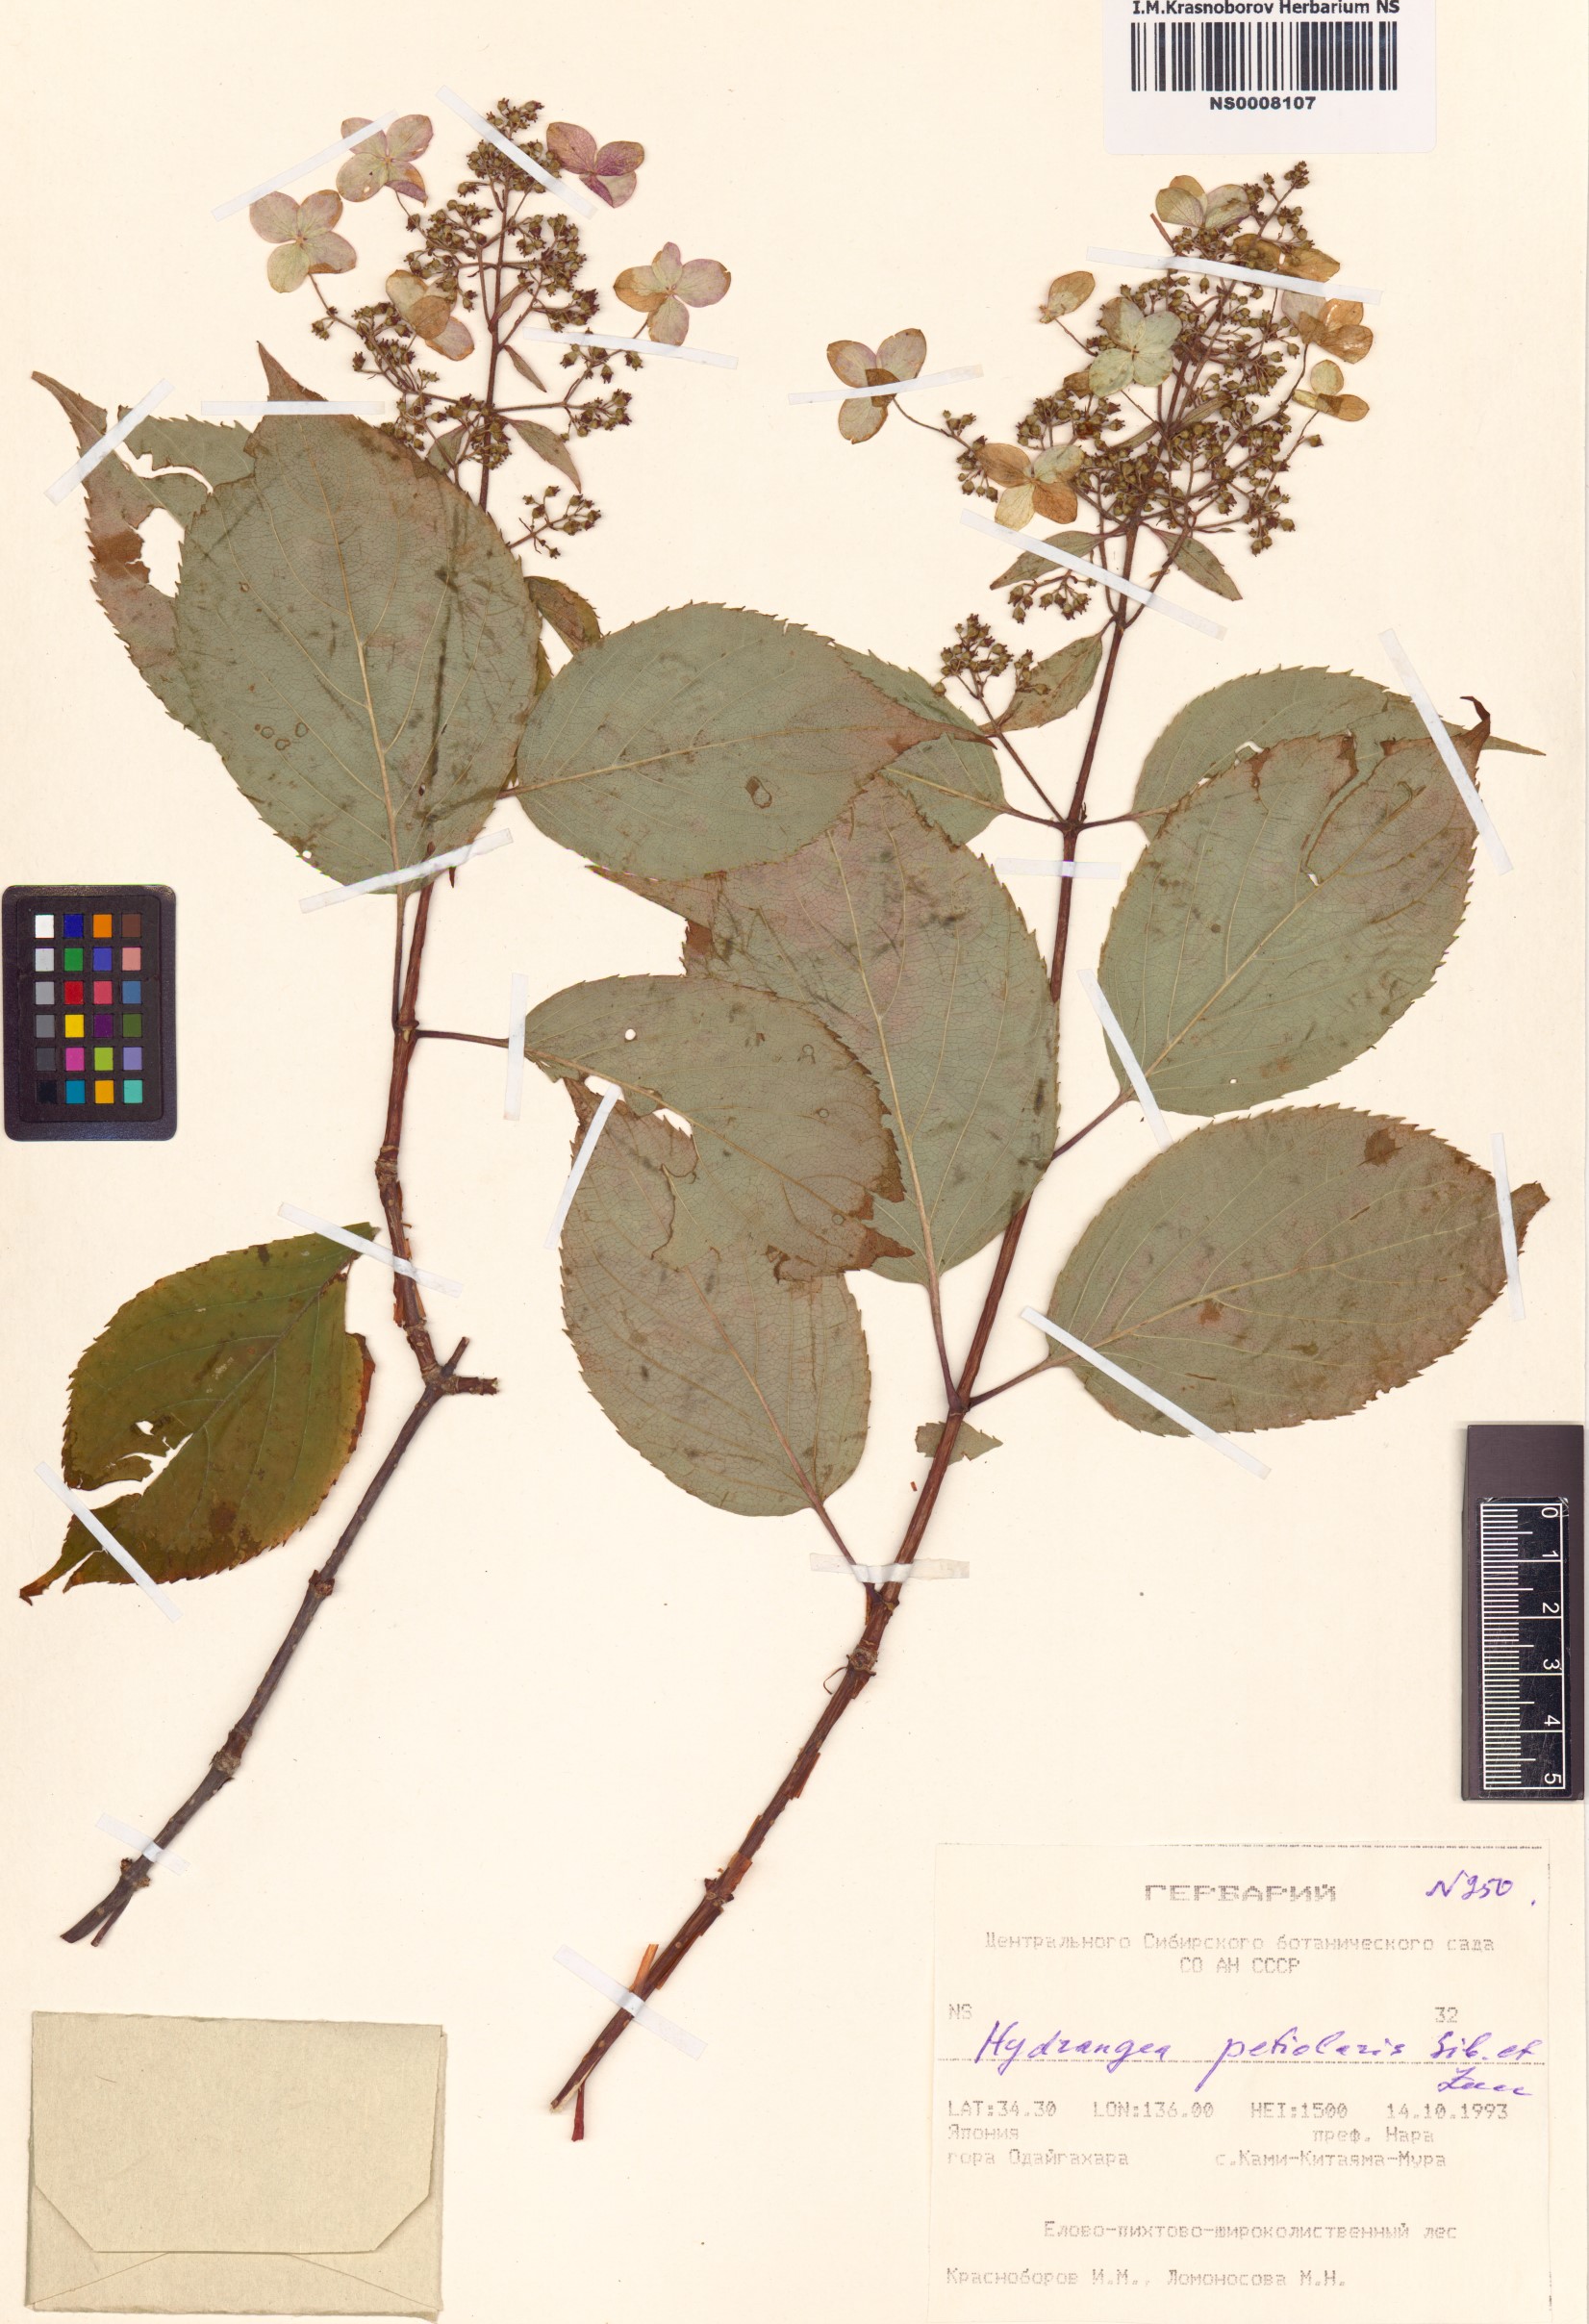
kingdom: Plantae
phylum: Tracheophyta
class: Magnoliopsida
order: Cornales
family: Hydrangeaceae
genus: Hydrangea
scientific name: Hydrangea petiolaris
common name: Japanese climbing hydrangea
